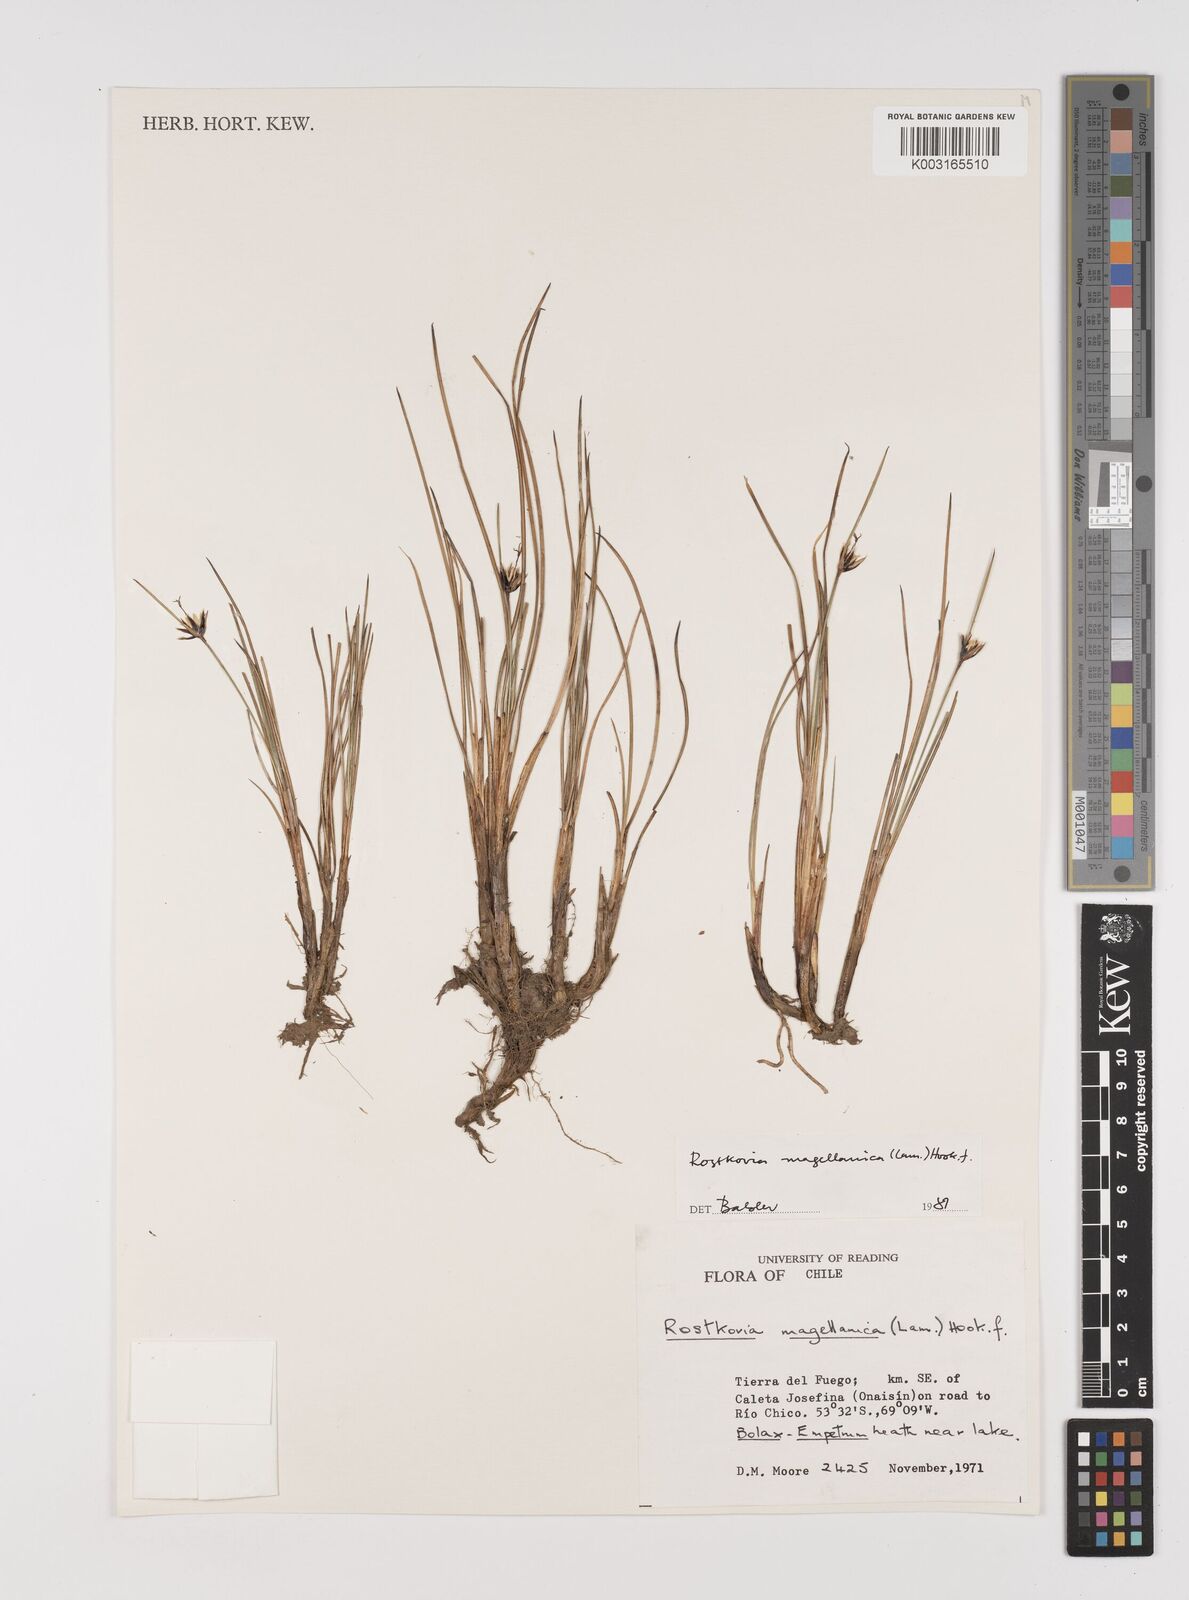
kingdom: Plantae
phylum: Tracheophyta
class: Liliopsida
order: Poales
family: Juncaceae
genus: Rostkovia
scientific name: Rostkovia magellanica
